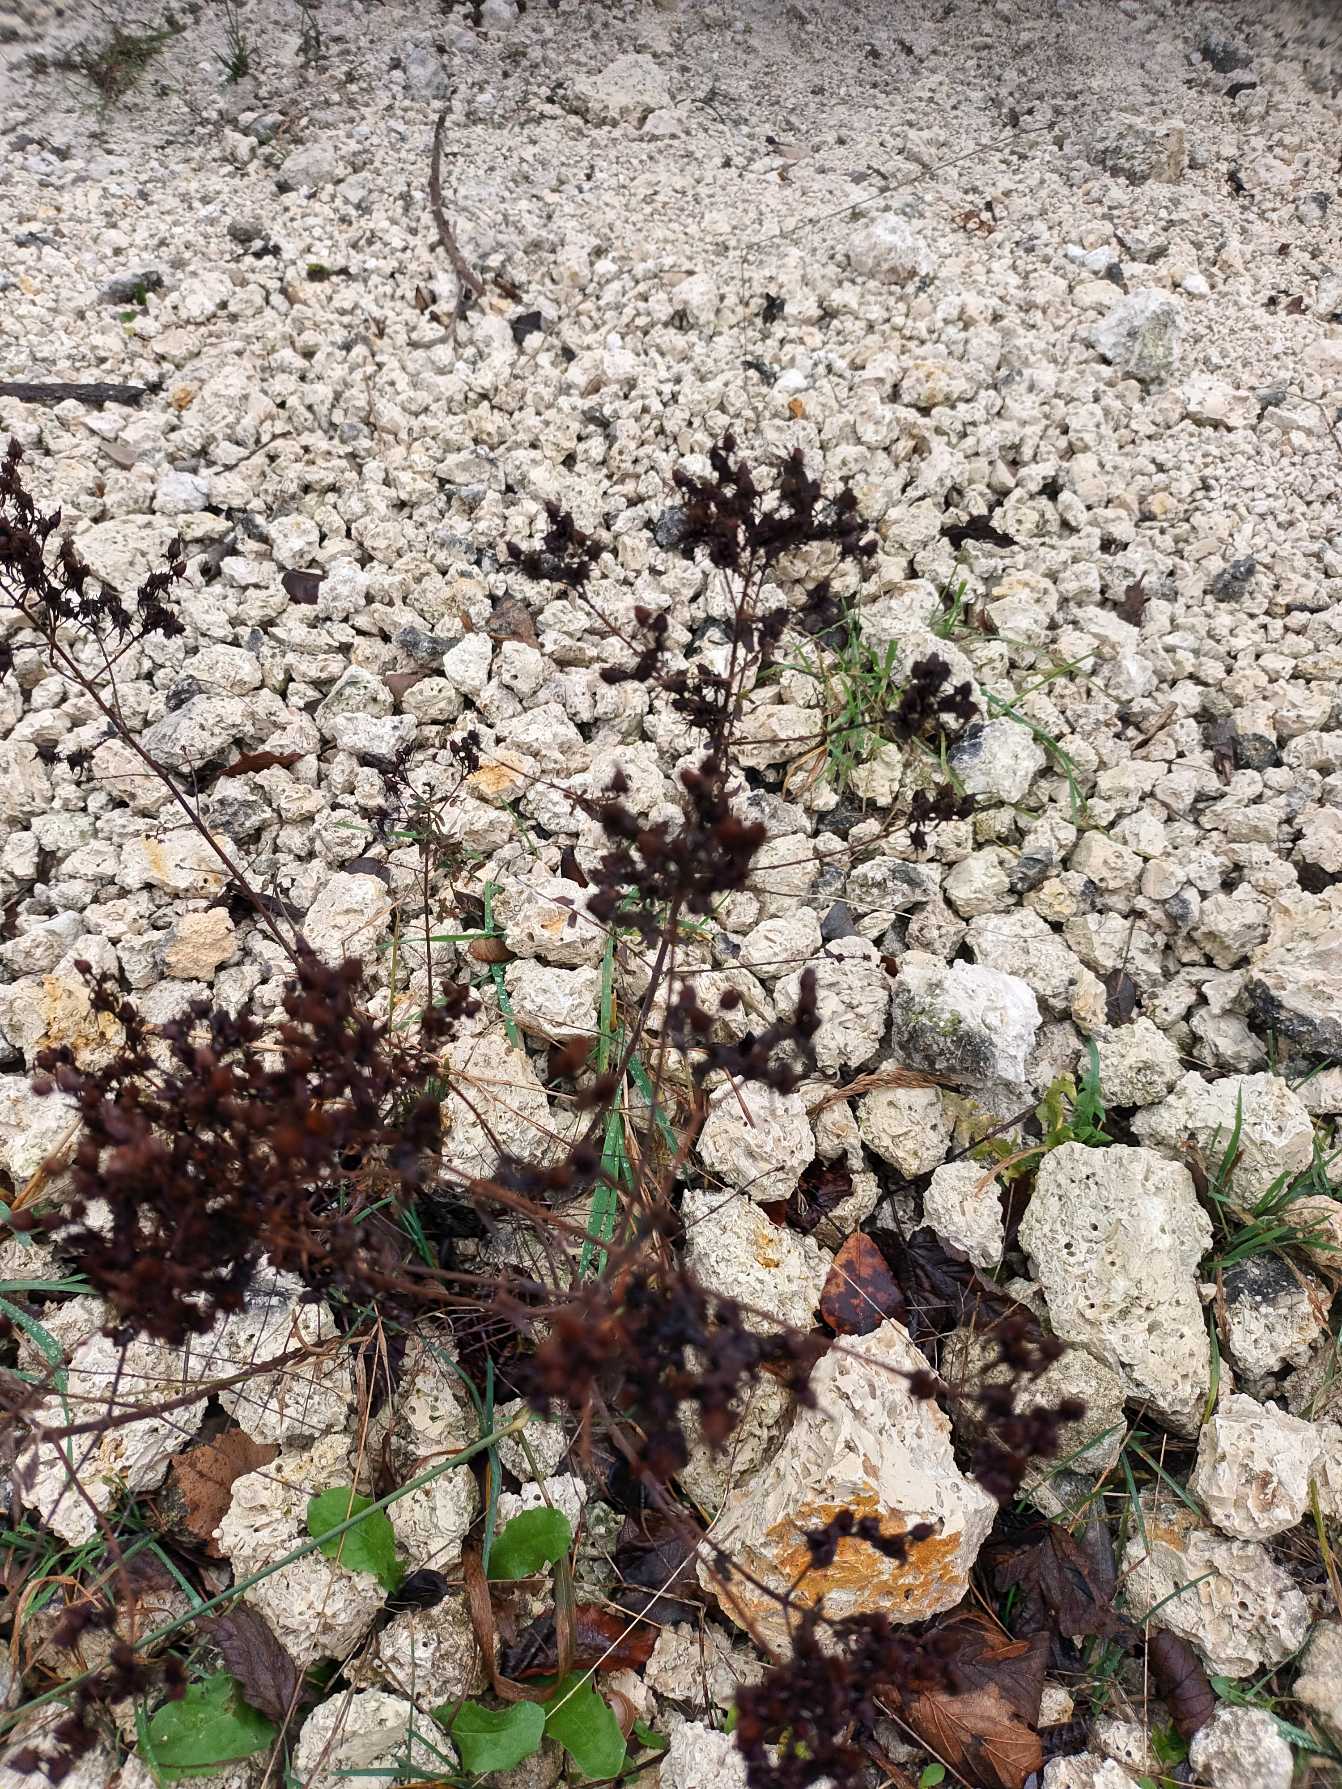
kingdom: Plantae
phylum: Tracheophyta
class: Magnoliopsida
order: Malpighiales
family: Hypericaceae
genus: Hypericum
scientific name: Hypericum perforatum
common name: Prikbladet perikon
